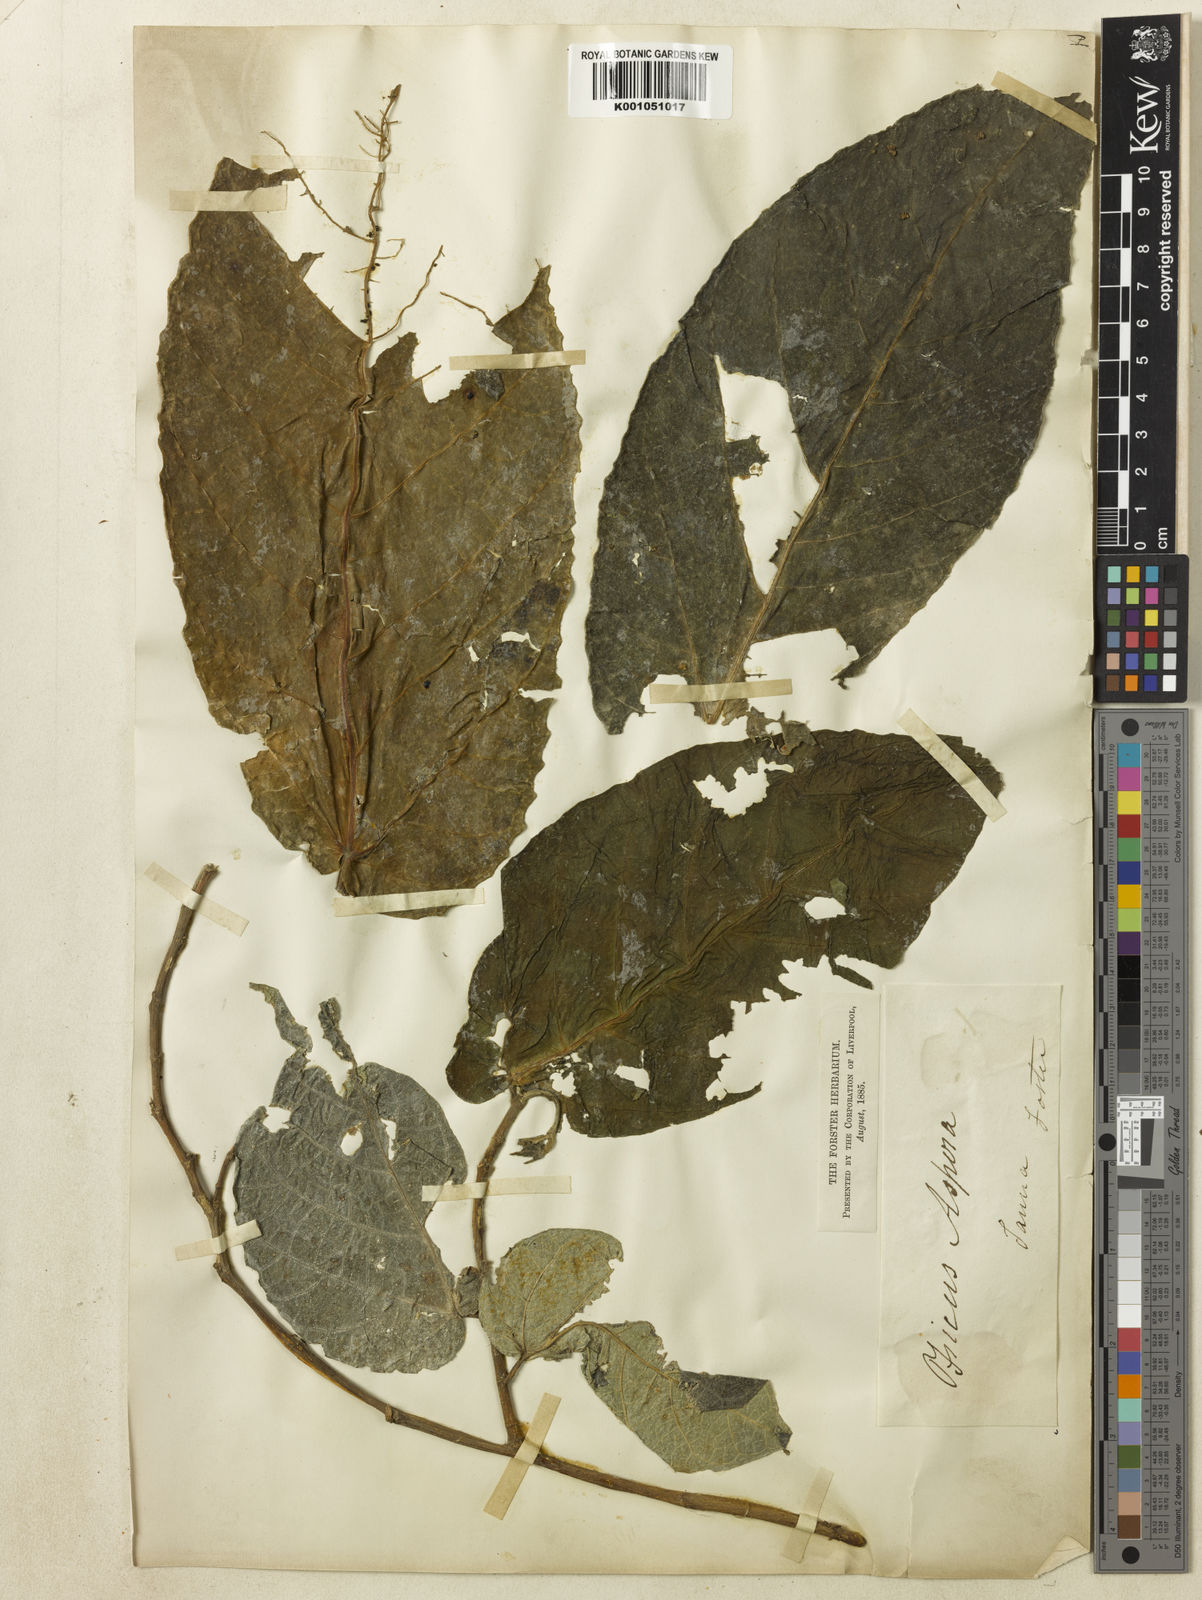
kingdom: Plantae
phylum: Tracheophyta
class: Magnoliopsida
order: Rosales
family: Moraceae
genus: Ficus
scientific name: Ficus aspera
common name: Mosaic fig
